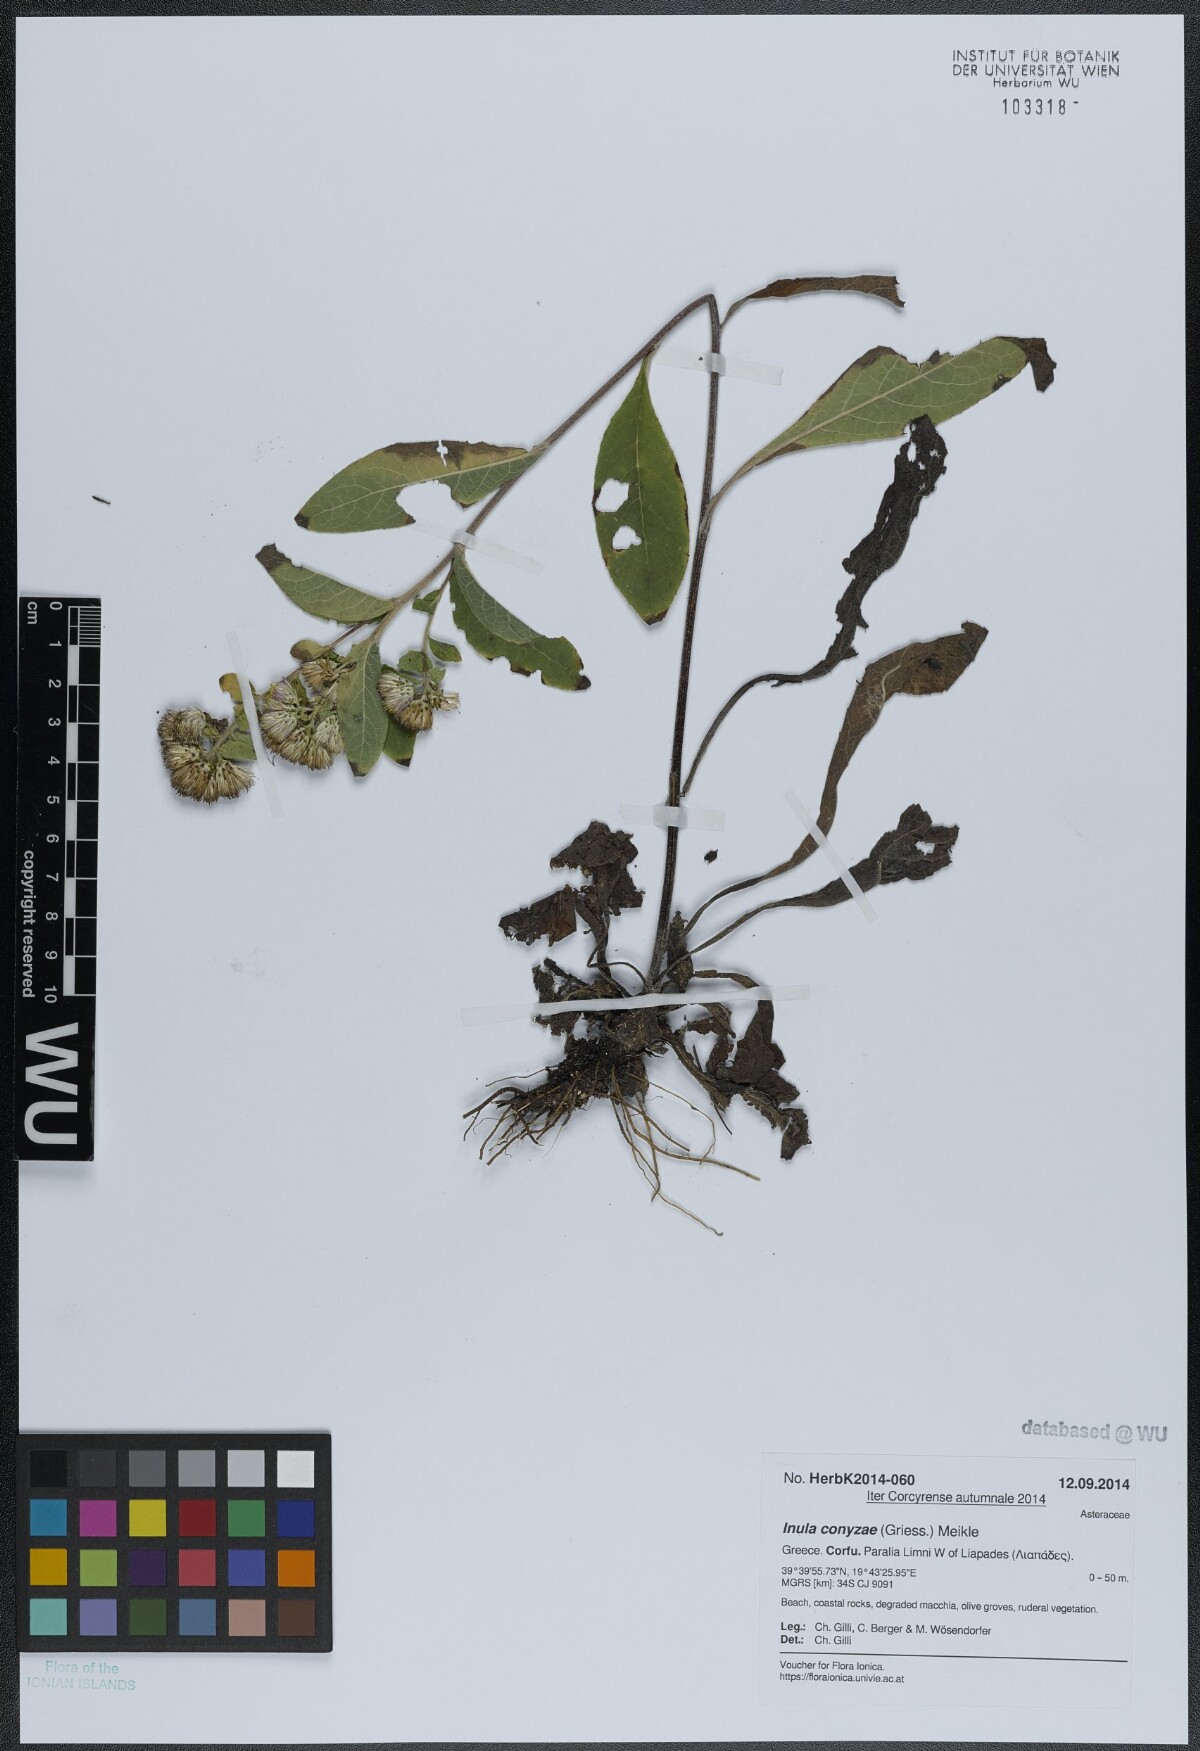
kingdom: Plantae
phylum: Tracheophyta
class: Magnoliopsida
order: Asterales
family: Asteraceae
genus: Pentanema
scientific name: Pentanema squarrosum
